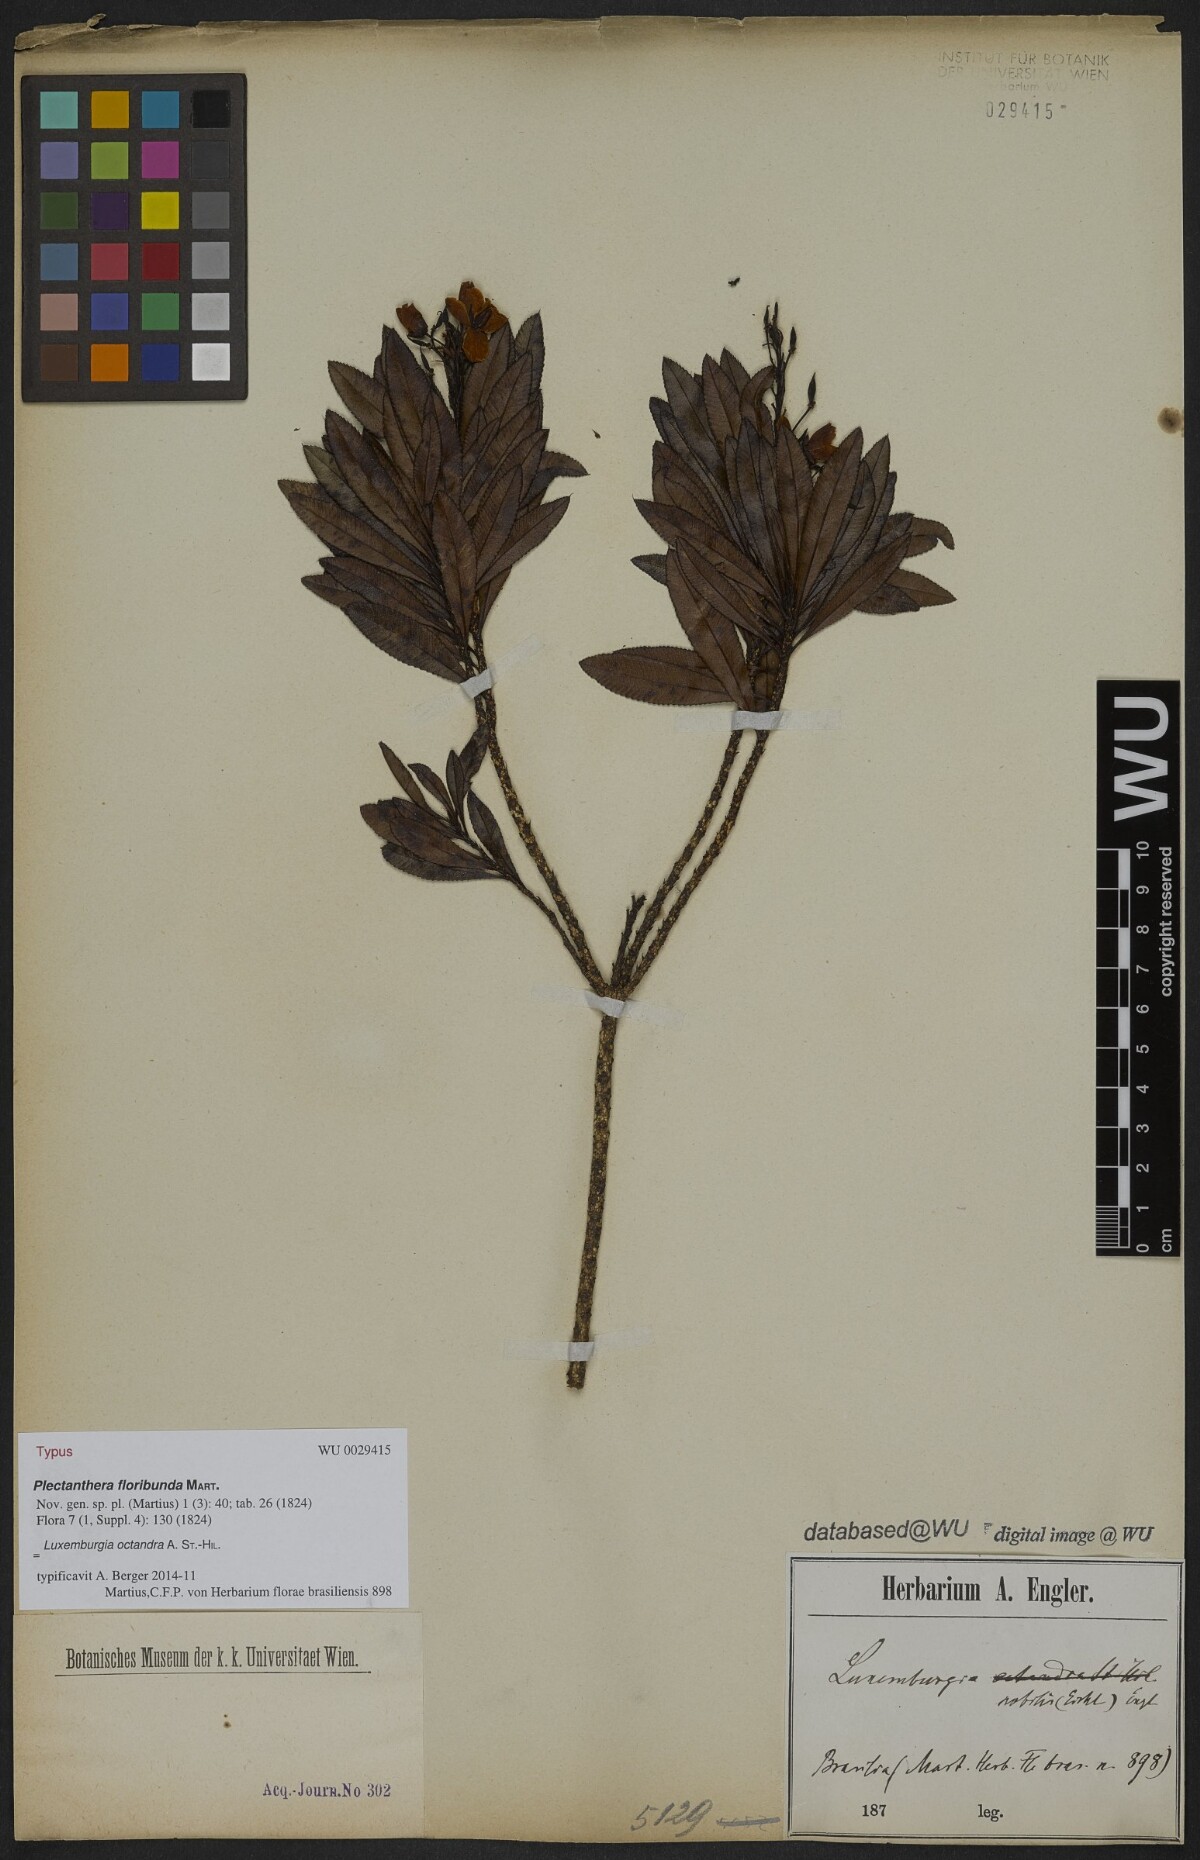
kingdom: Plantae
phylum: Tracheophyta
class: Magnoliopsida
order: Malpighiales
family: Ochnaceae
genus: Luxemburgia
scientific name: Luxemburgia speciosa
